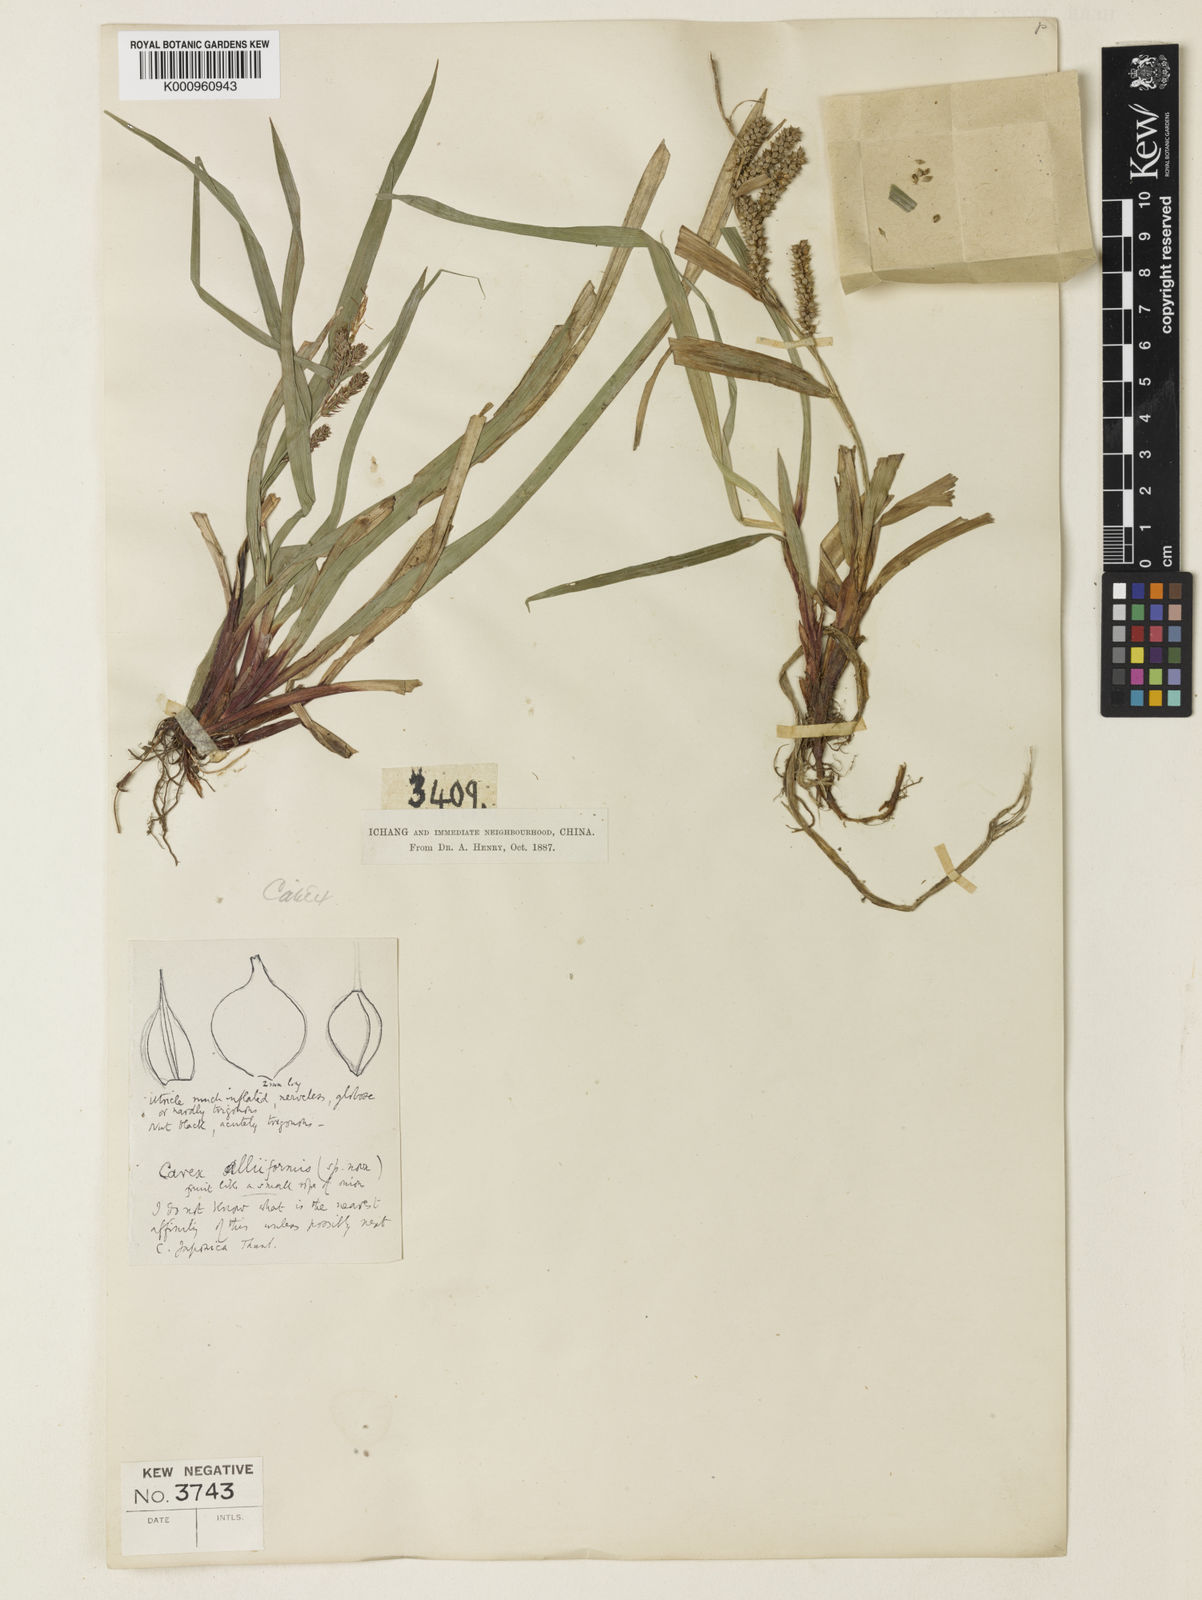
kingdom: Plantae
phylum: Tracheophyta
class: Liliopsida
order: Poales
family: Cyperaceae
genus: Carex
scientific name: Carex alliiformis
